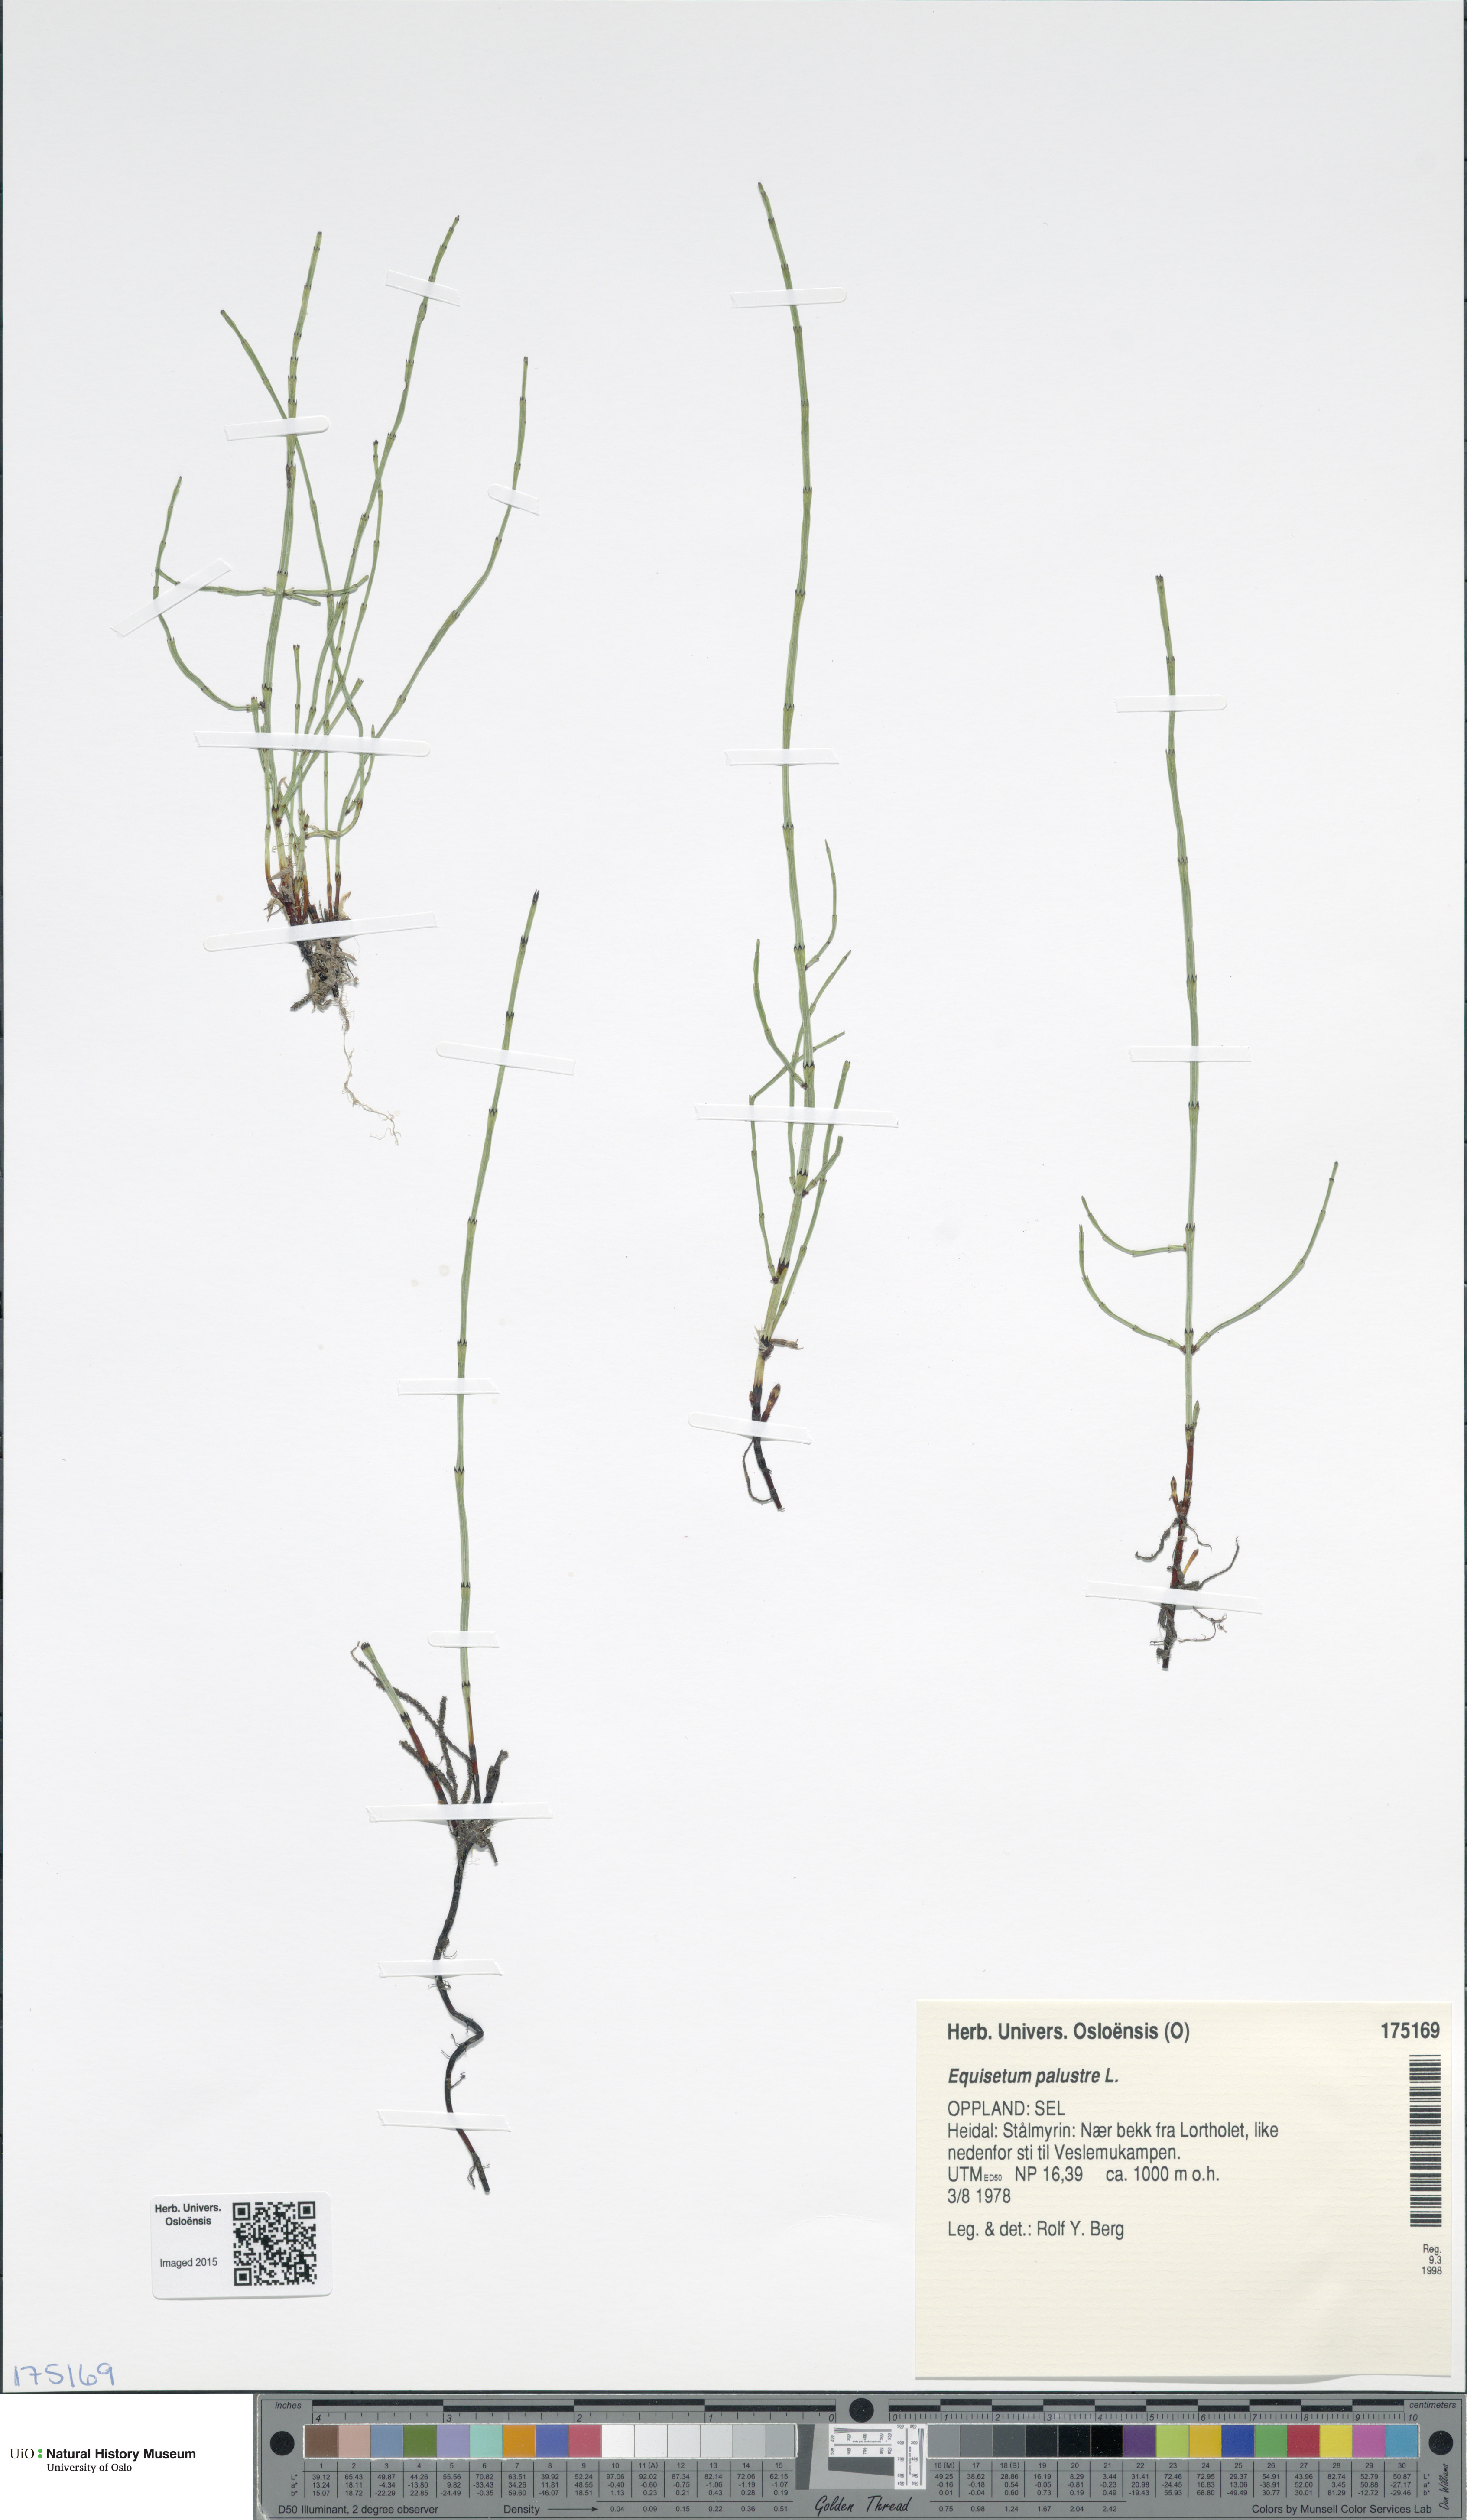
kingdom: Plantae
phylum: Tracheophyta
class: Polypodiopsida
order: Equisetales
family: Equisetaceae
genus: Equisetum
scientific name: Equisetum palustre
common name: Marsh horsetail
